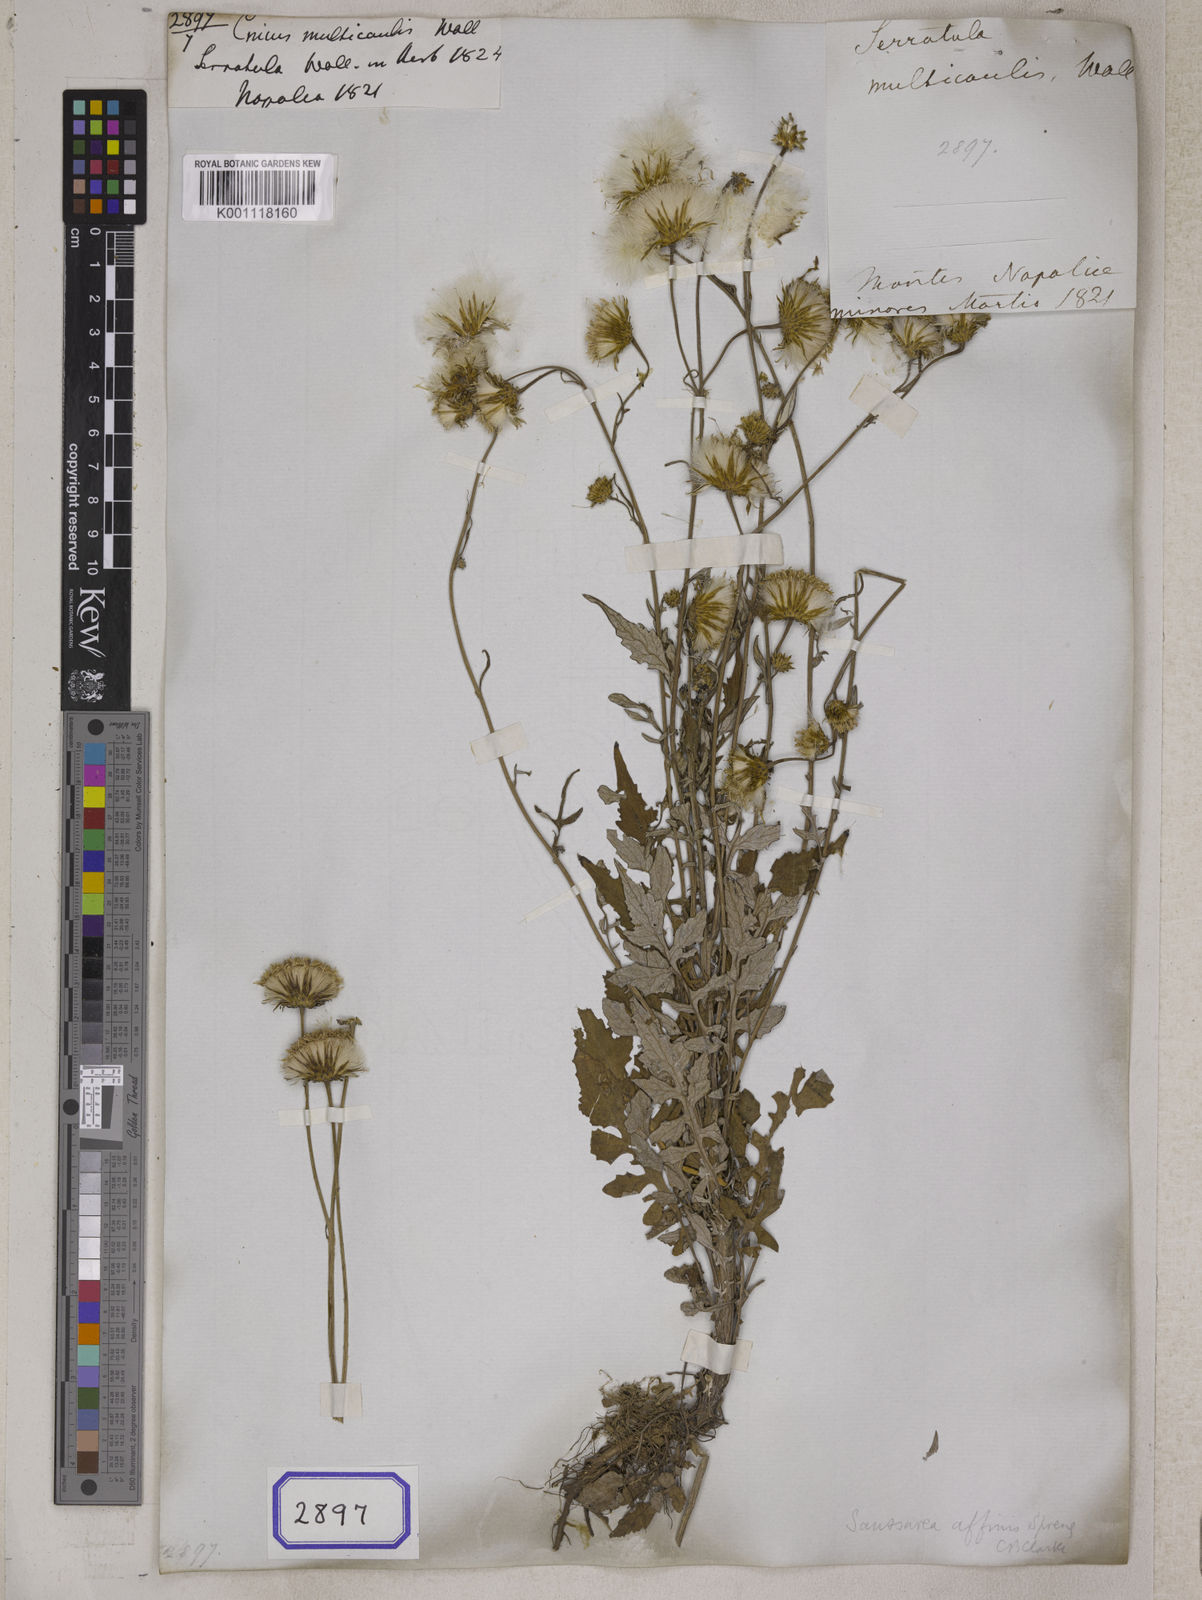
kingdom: Plantae
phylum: Tracheophyta
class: Magnoliopsida
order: Asterales
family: Asteraceae
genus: Saussurea
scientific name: Saussurea lyrata
